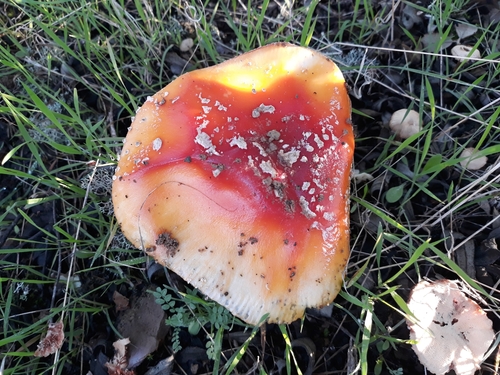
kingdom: Fungi
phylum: Basidiomycota
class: Agaricomycetes
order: Agaricales
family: Amanitaceae
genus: Amanita
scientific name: Amanita muscaria
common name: Fly agaric
